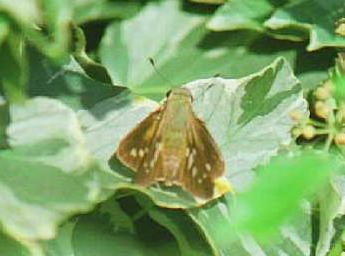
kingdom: Animalia
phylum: Arthropoda
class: Insecta
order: Lepidoptera
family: Hesperiidae
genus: Calpodes
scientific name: Calpodes ethlius
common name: Brazilian Skipper
